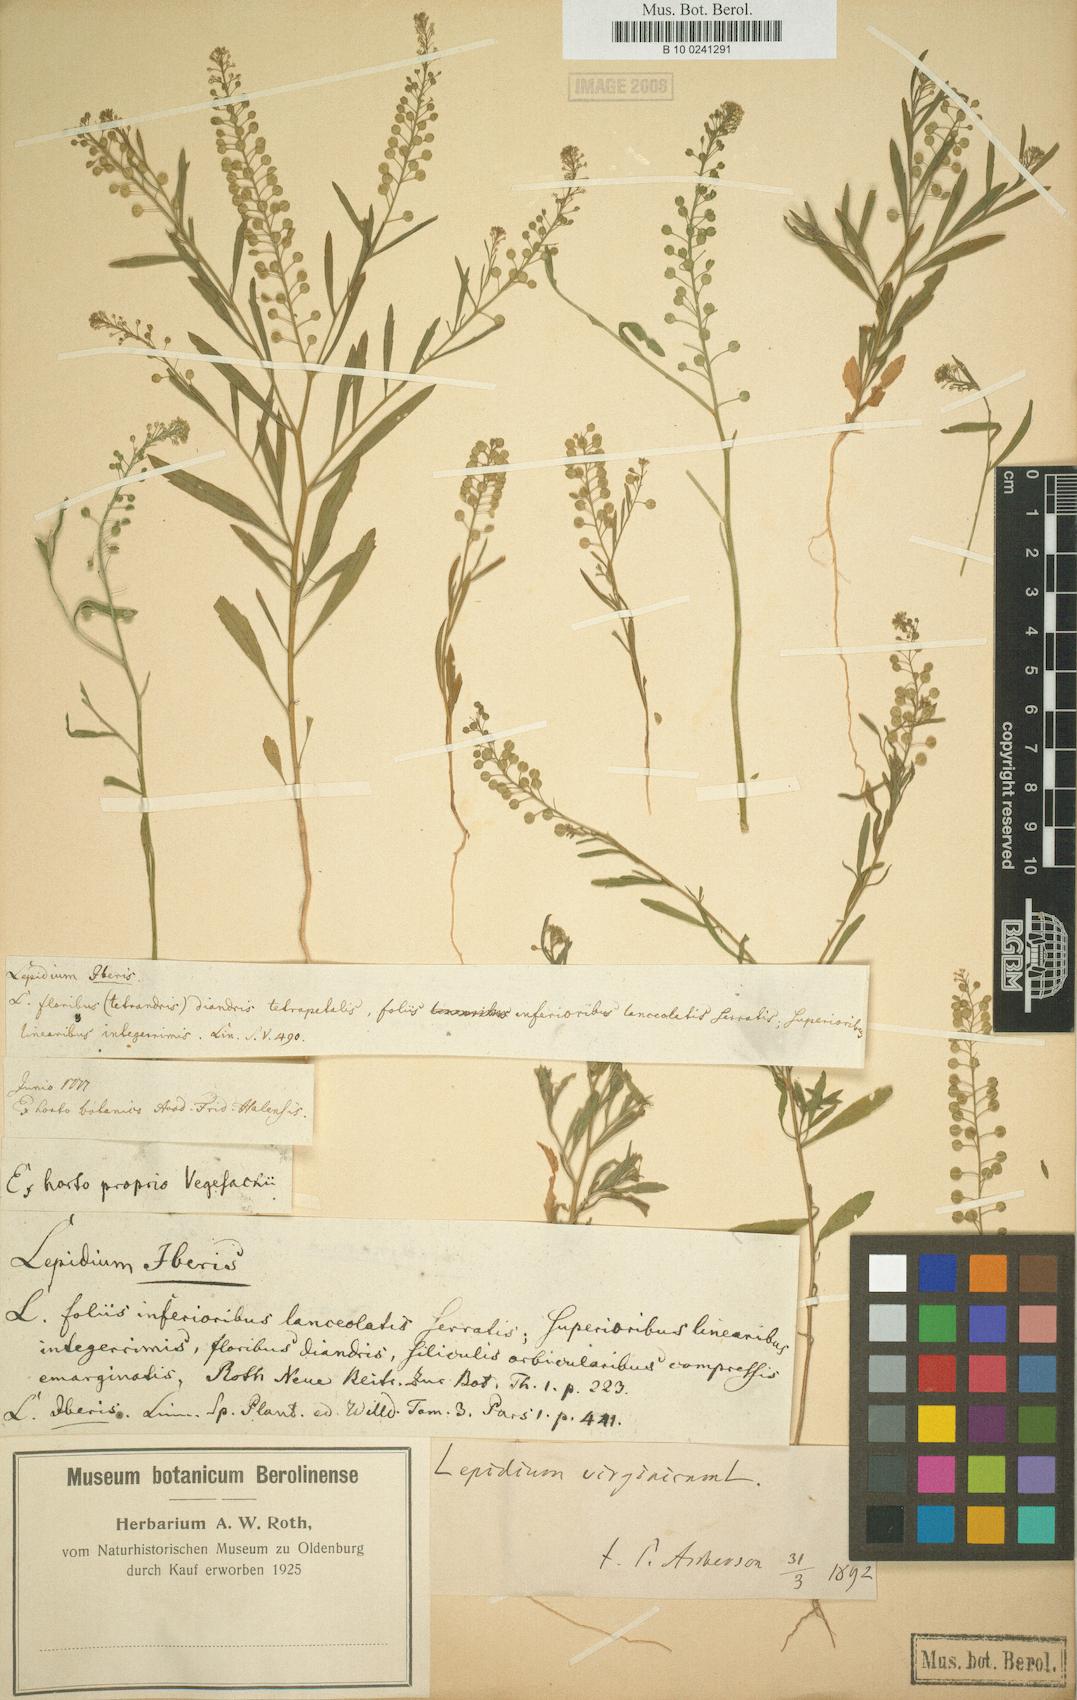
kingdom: Plantae
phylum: Tracheophyta
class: Magnoliopsida
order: Brassicales
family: Brassicaceae
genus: Lepidium
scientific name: Lepidium virginicum
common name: Least pepperwort
